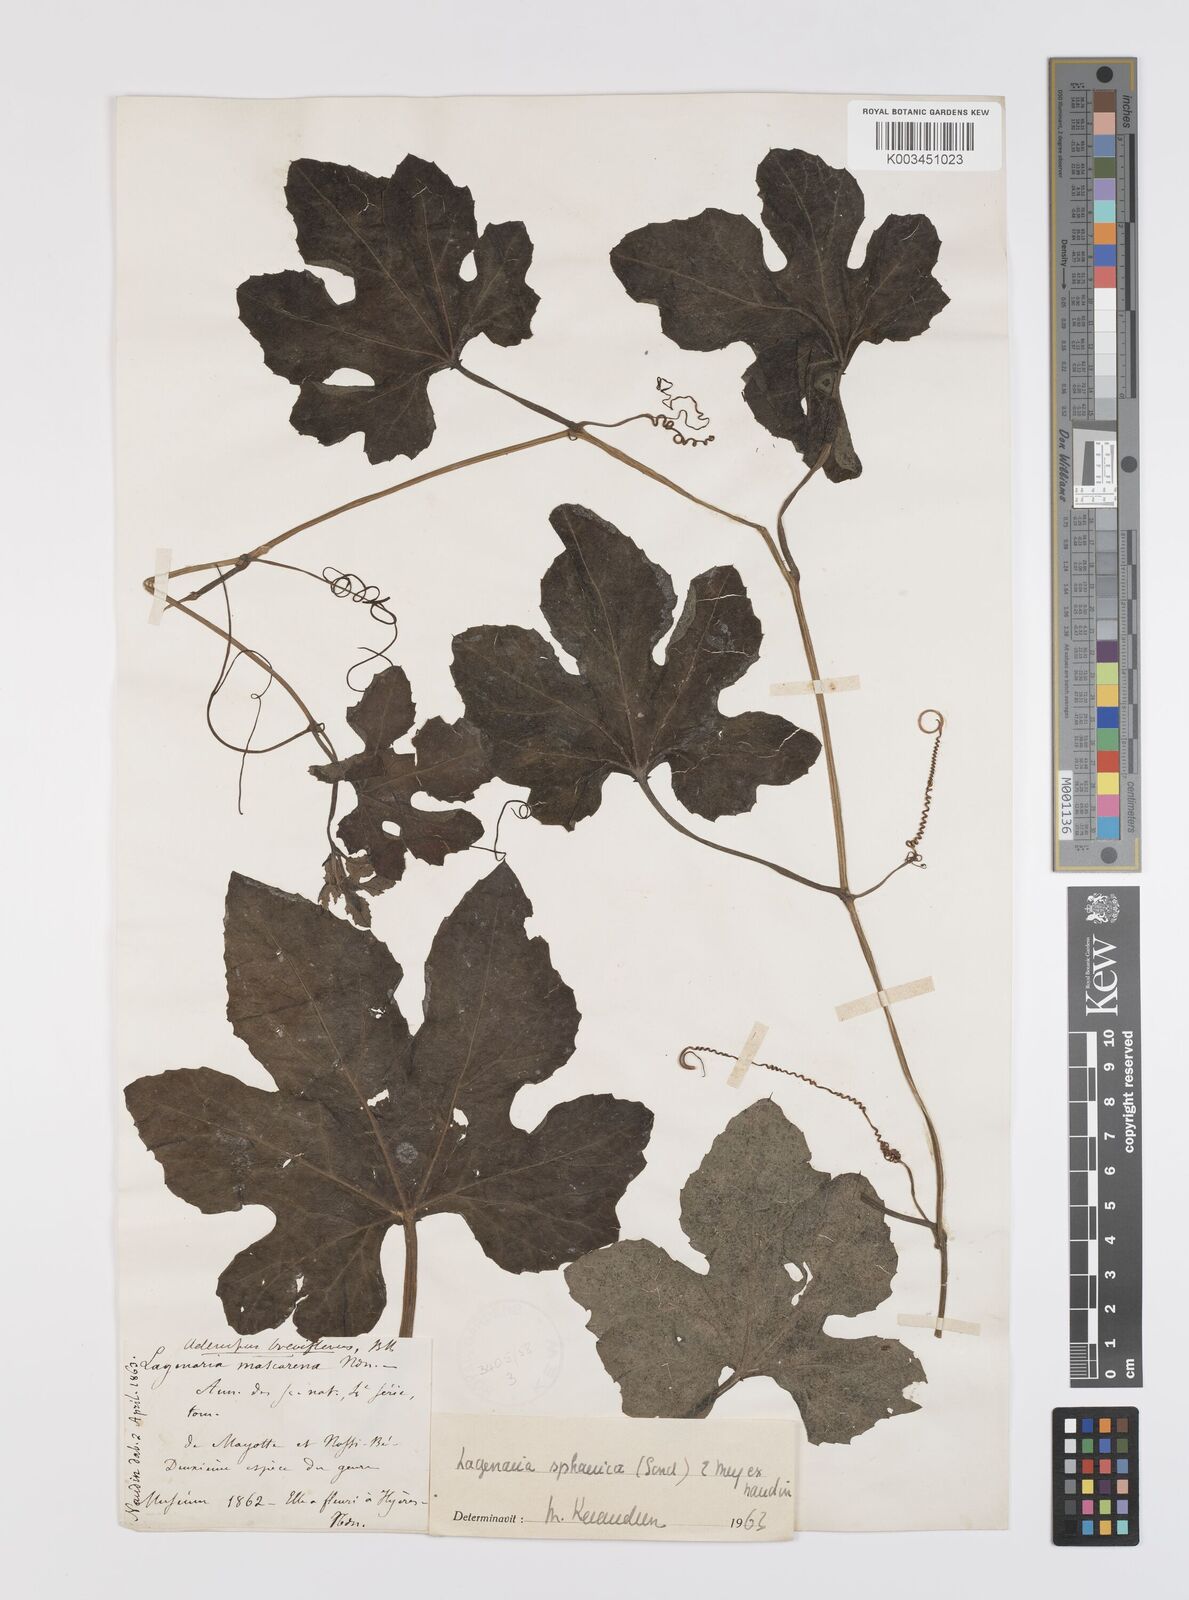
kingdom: Plantae
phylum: Tracheophyta
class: Magnoliopsida
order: Cucurbitales
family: Cucurbitaceae
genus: Lagenaria
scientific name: Lagenaria sphaerica
